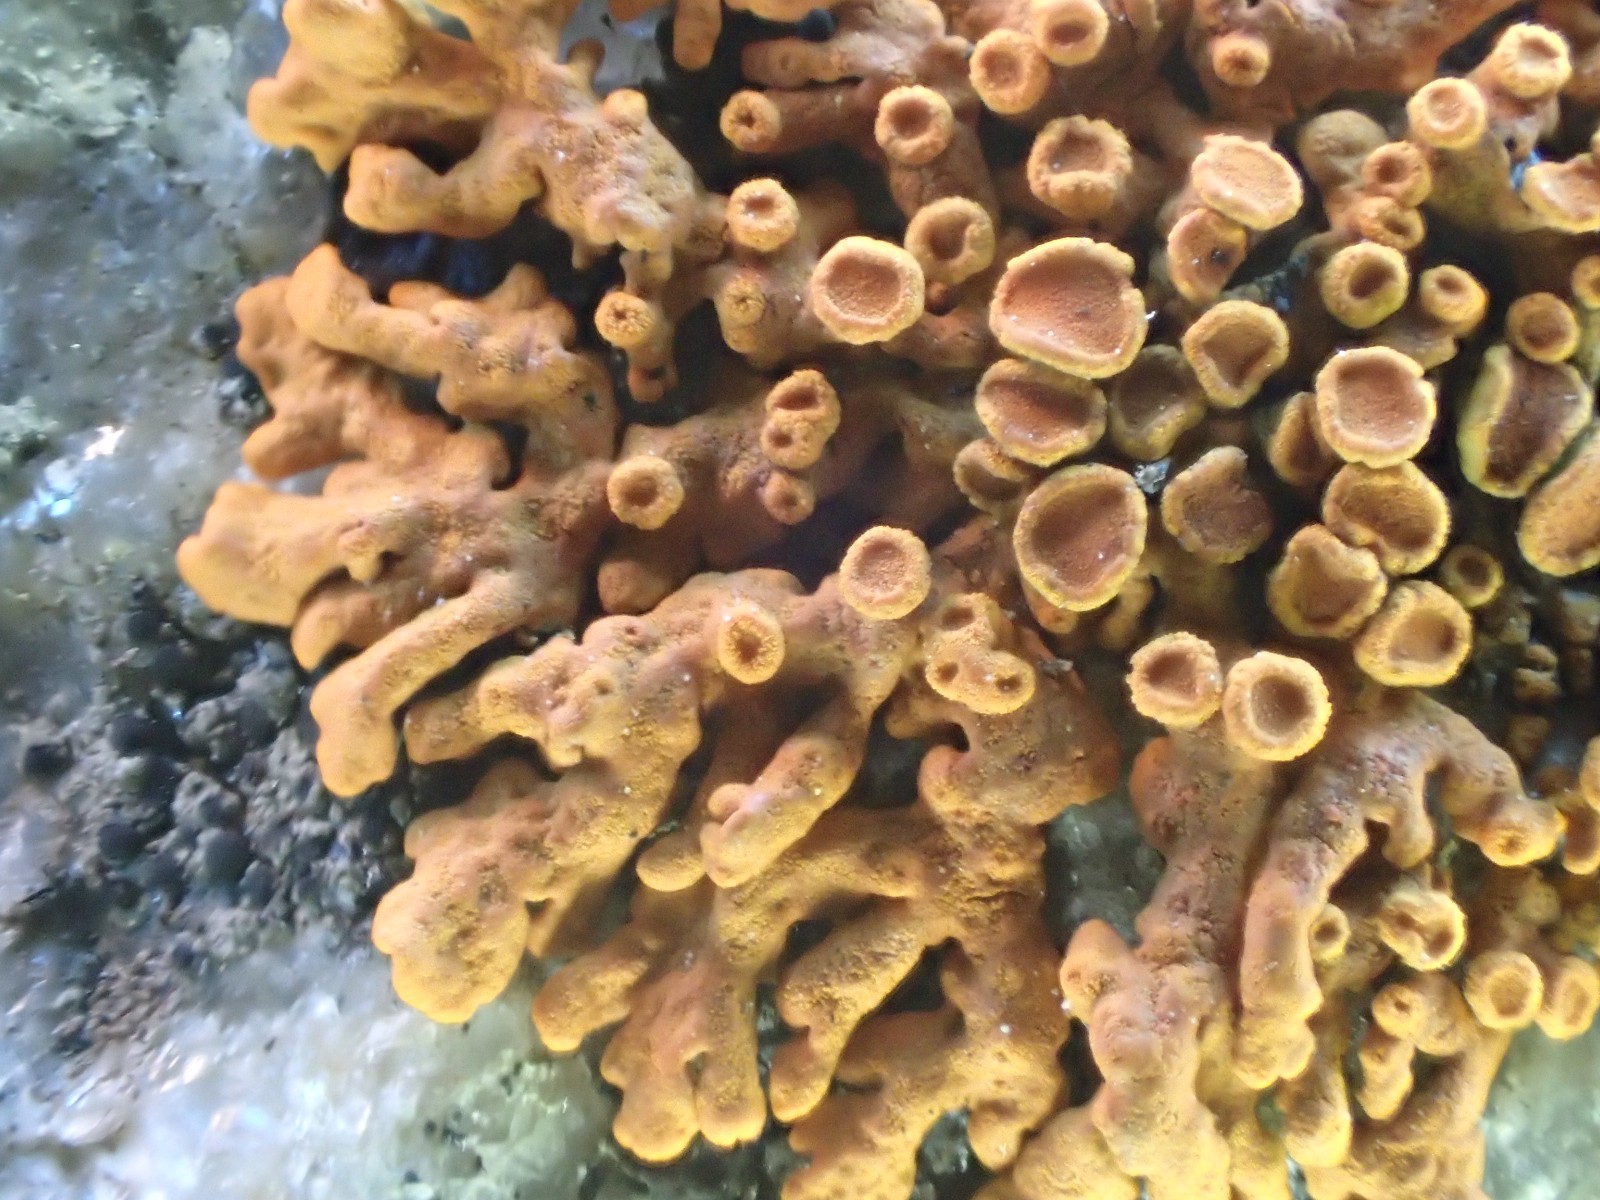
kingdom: Fungi
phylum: Ascomycota
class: Lecanoromycetes
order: Teloschistales
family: Teloschistaceae
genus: Xanthoria
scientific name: Xanthoria elegans
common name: fjeld-væggelav
